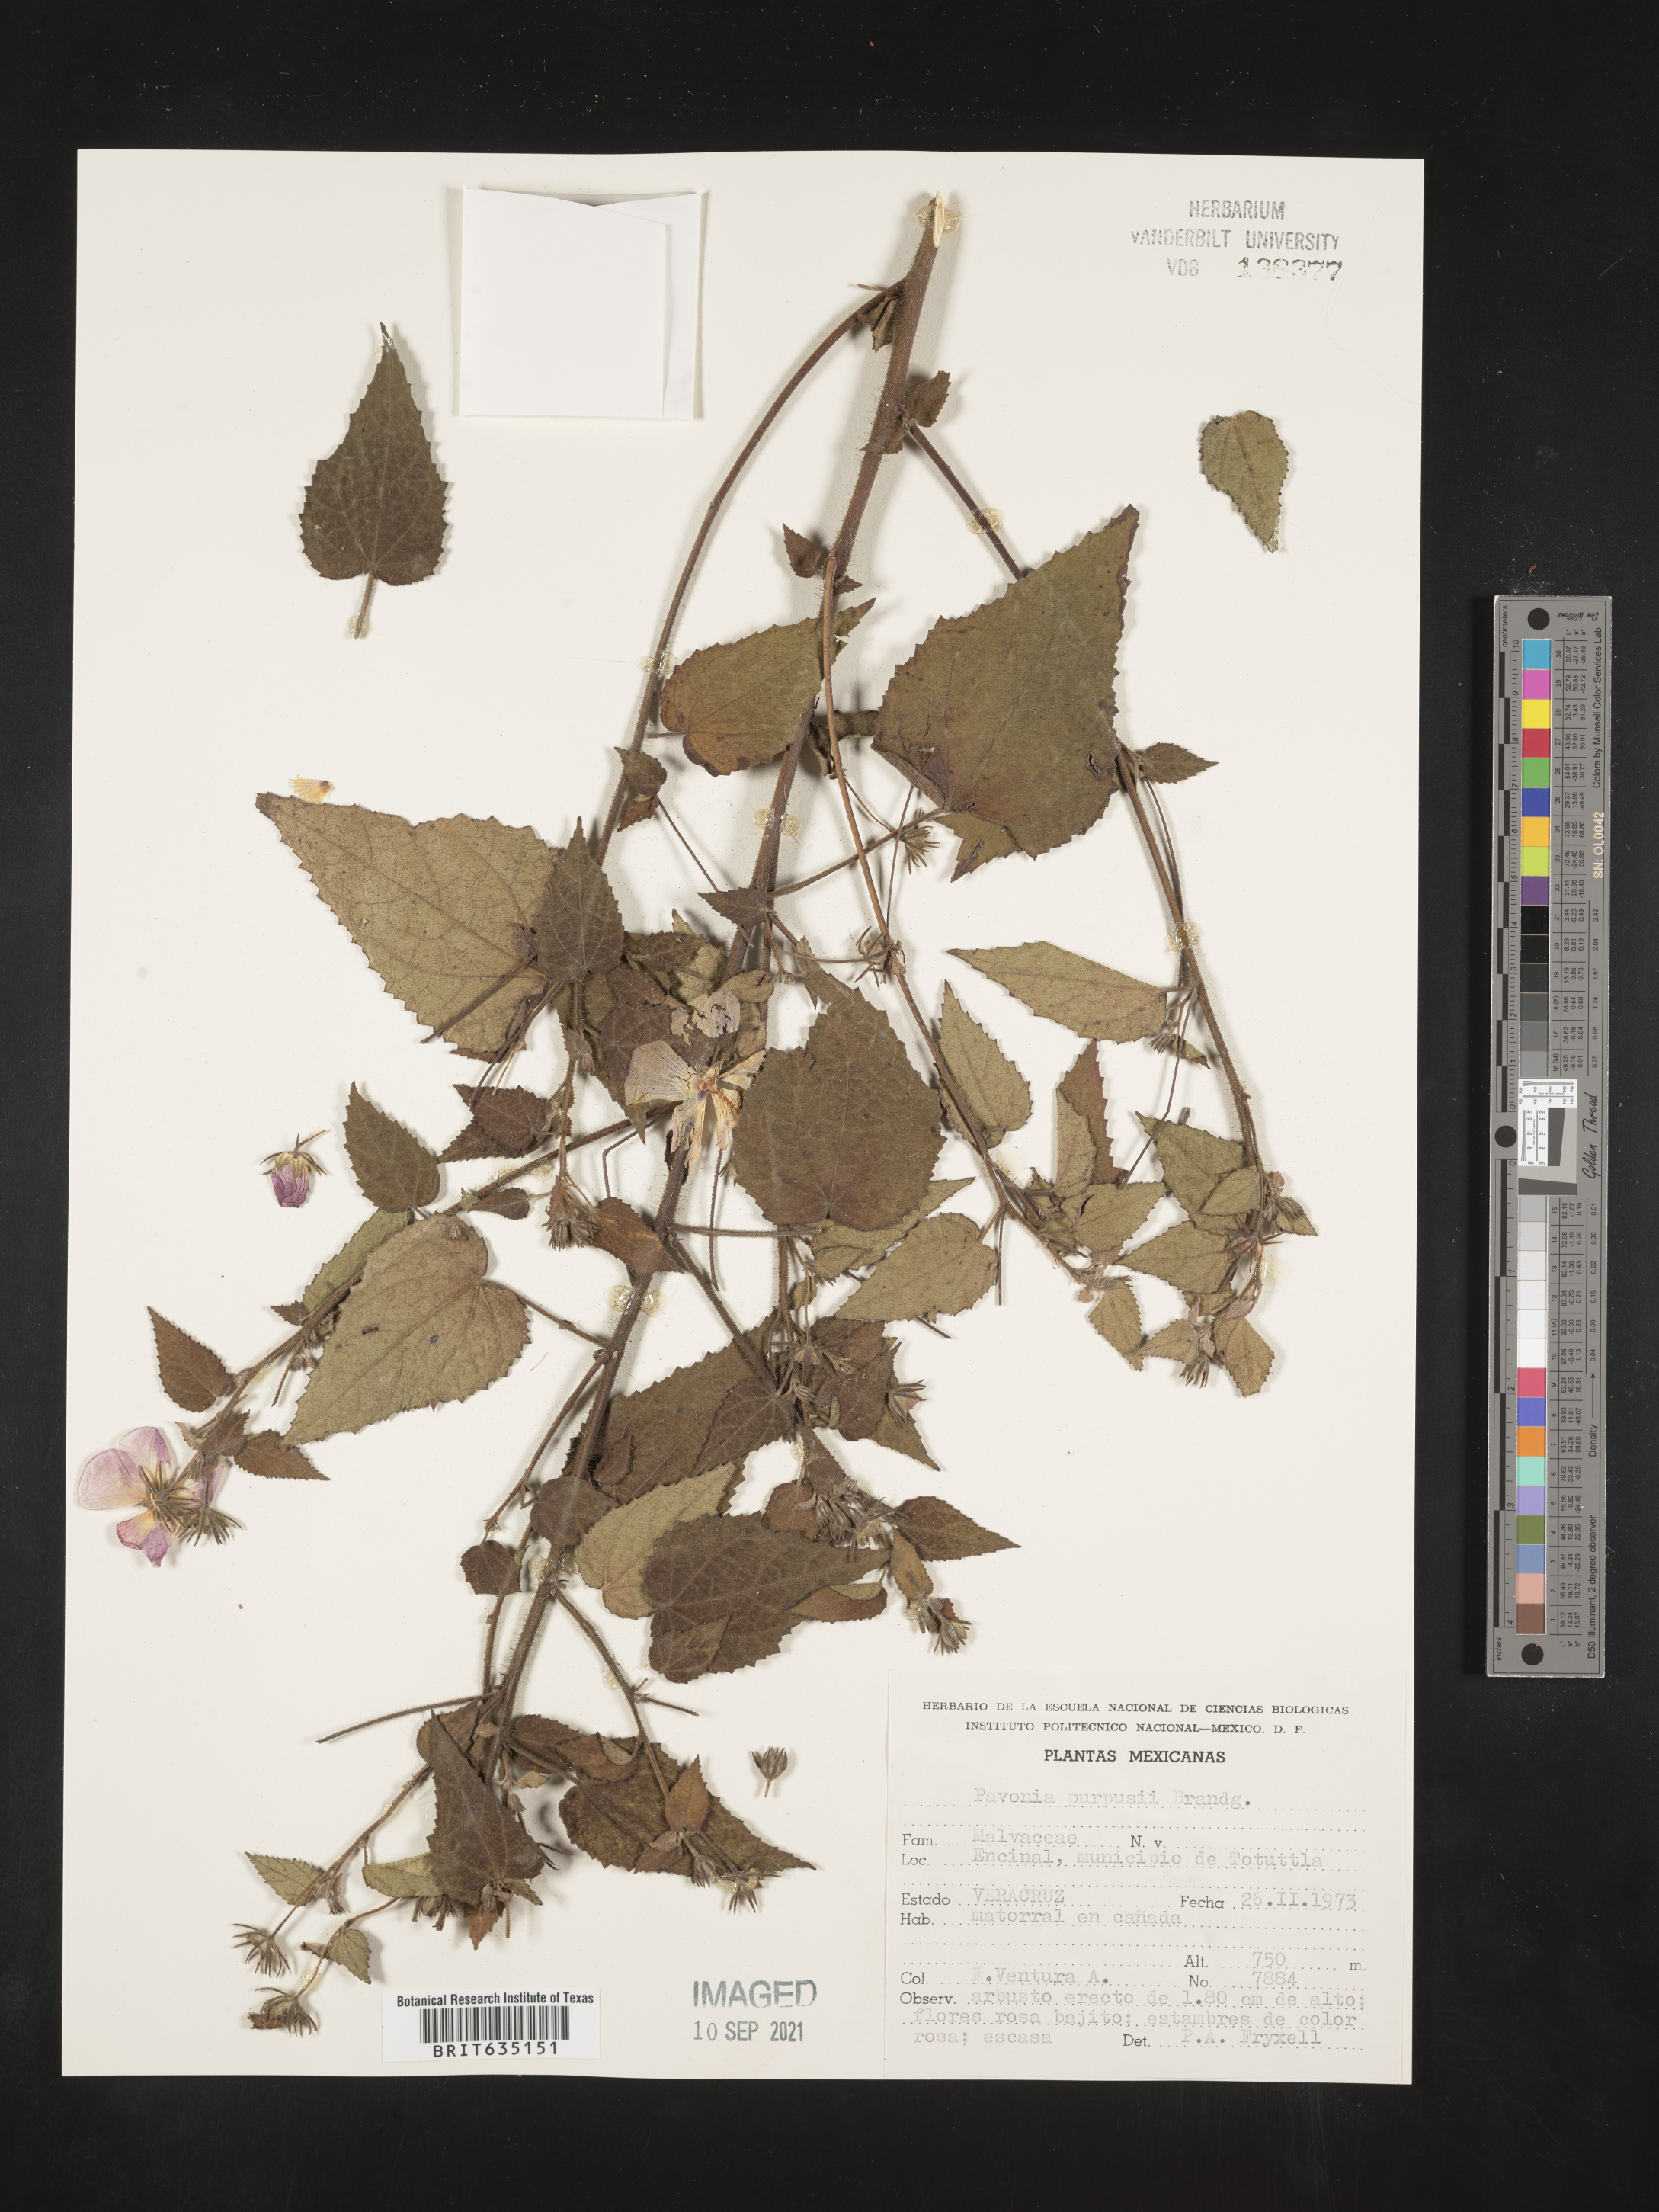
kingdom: Plantae
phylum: Tracheophyta
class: Magnoliopsida
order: Malvales
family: Malvaceae
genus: Pavonia
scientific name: Pavonia
